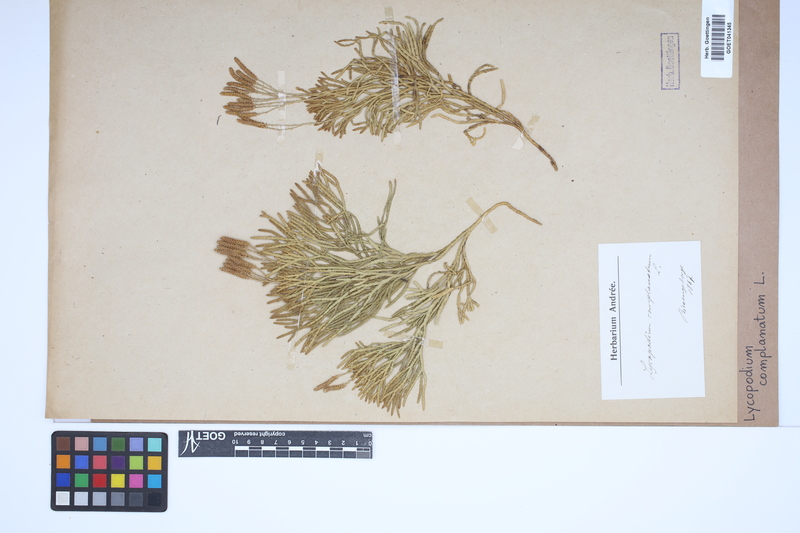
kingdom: Plantae
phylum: Tracheophyta
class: Lycopodiopsida
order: Lycopodiales
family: Lycopodiaceae
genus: Diphasiastrum
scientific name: Diphasiastrum complanatum
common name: Northern running-pine
